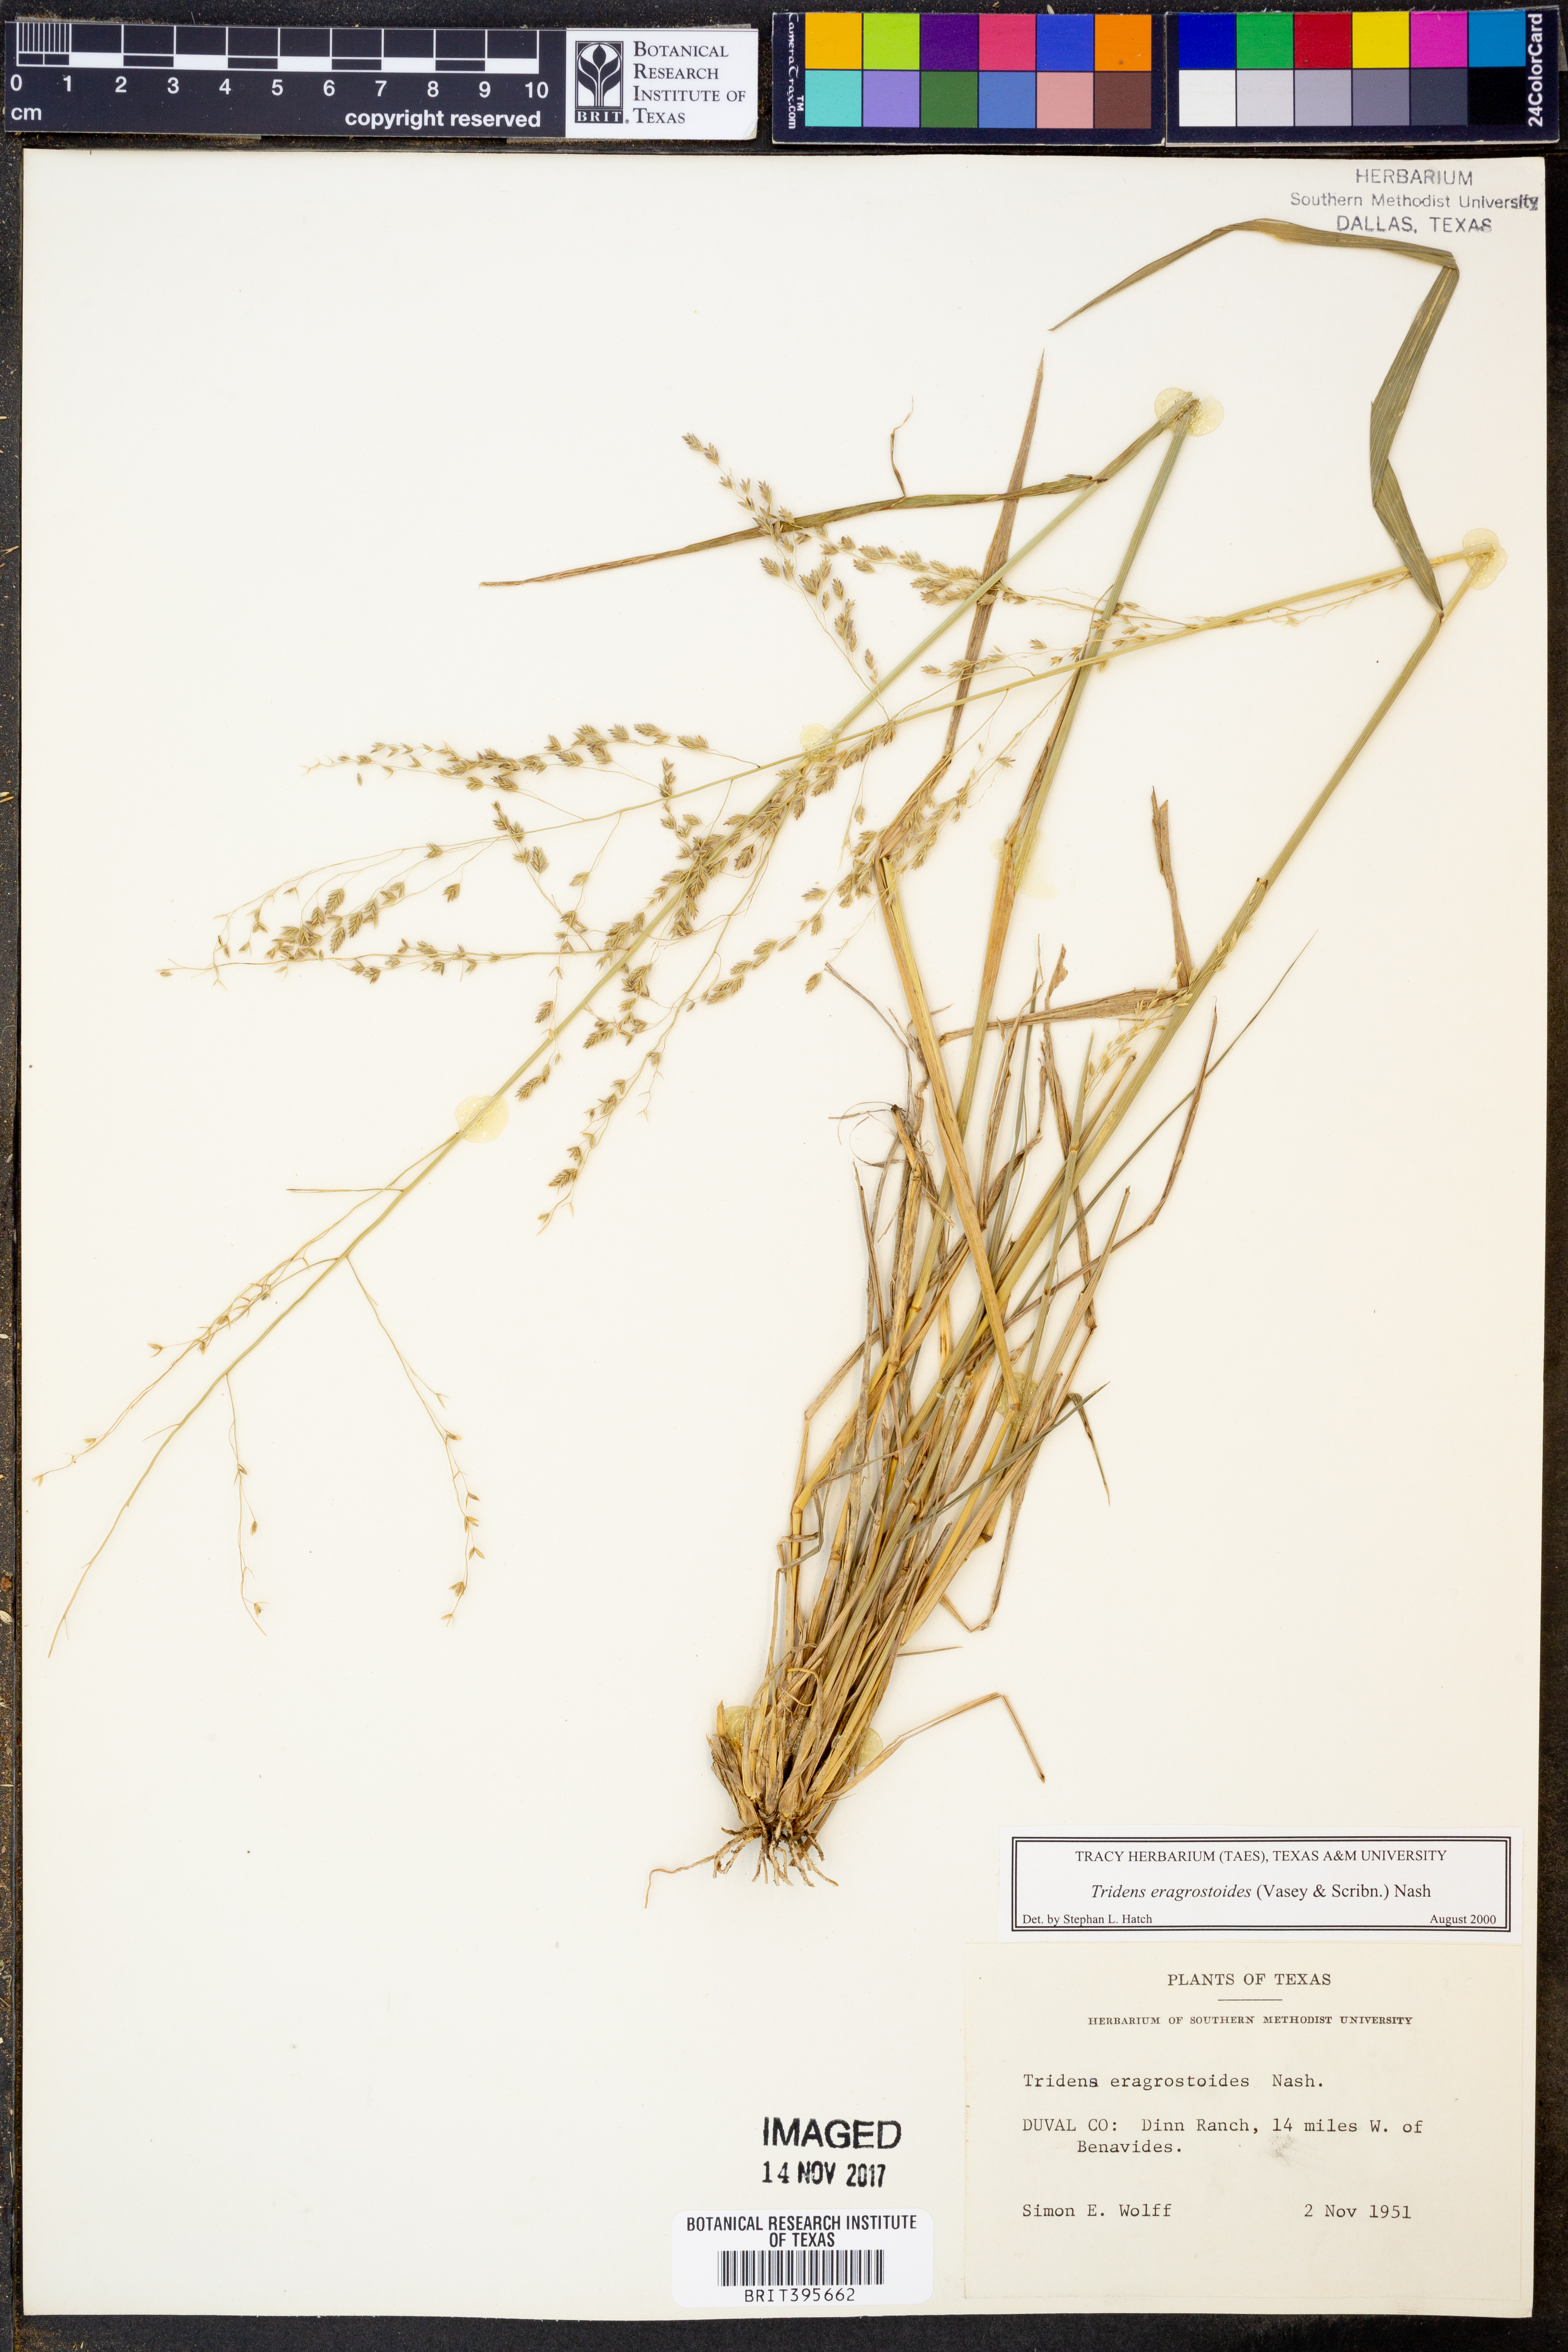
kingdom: Plantae
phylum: Tracheophyta
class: Liliopsida
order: Poales
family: Poaceae
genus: Triplasiella
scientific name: Triplasiella eragrostoides
